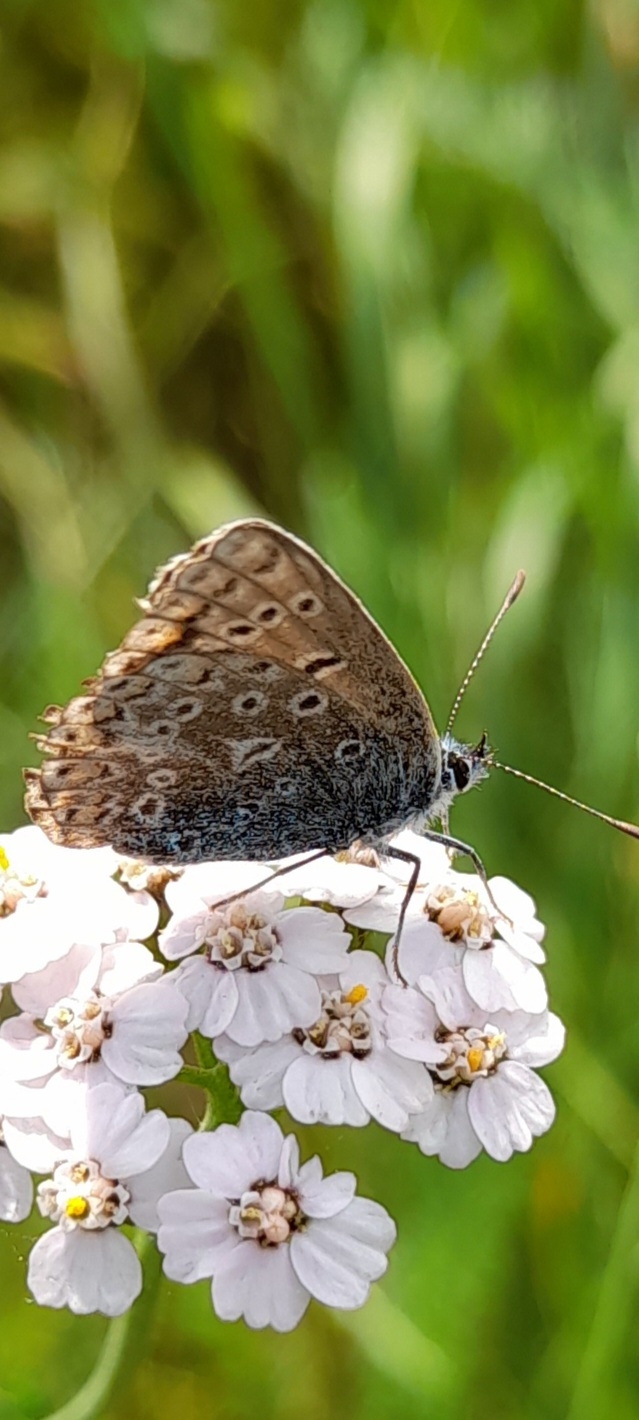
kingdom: Animalia
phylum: Arthropoda
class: Insecta
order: Lepidoptera
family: Lycaenidae
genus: Polyommatus
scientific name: Polyommatus icarus
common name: Almindelig blåfugl
